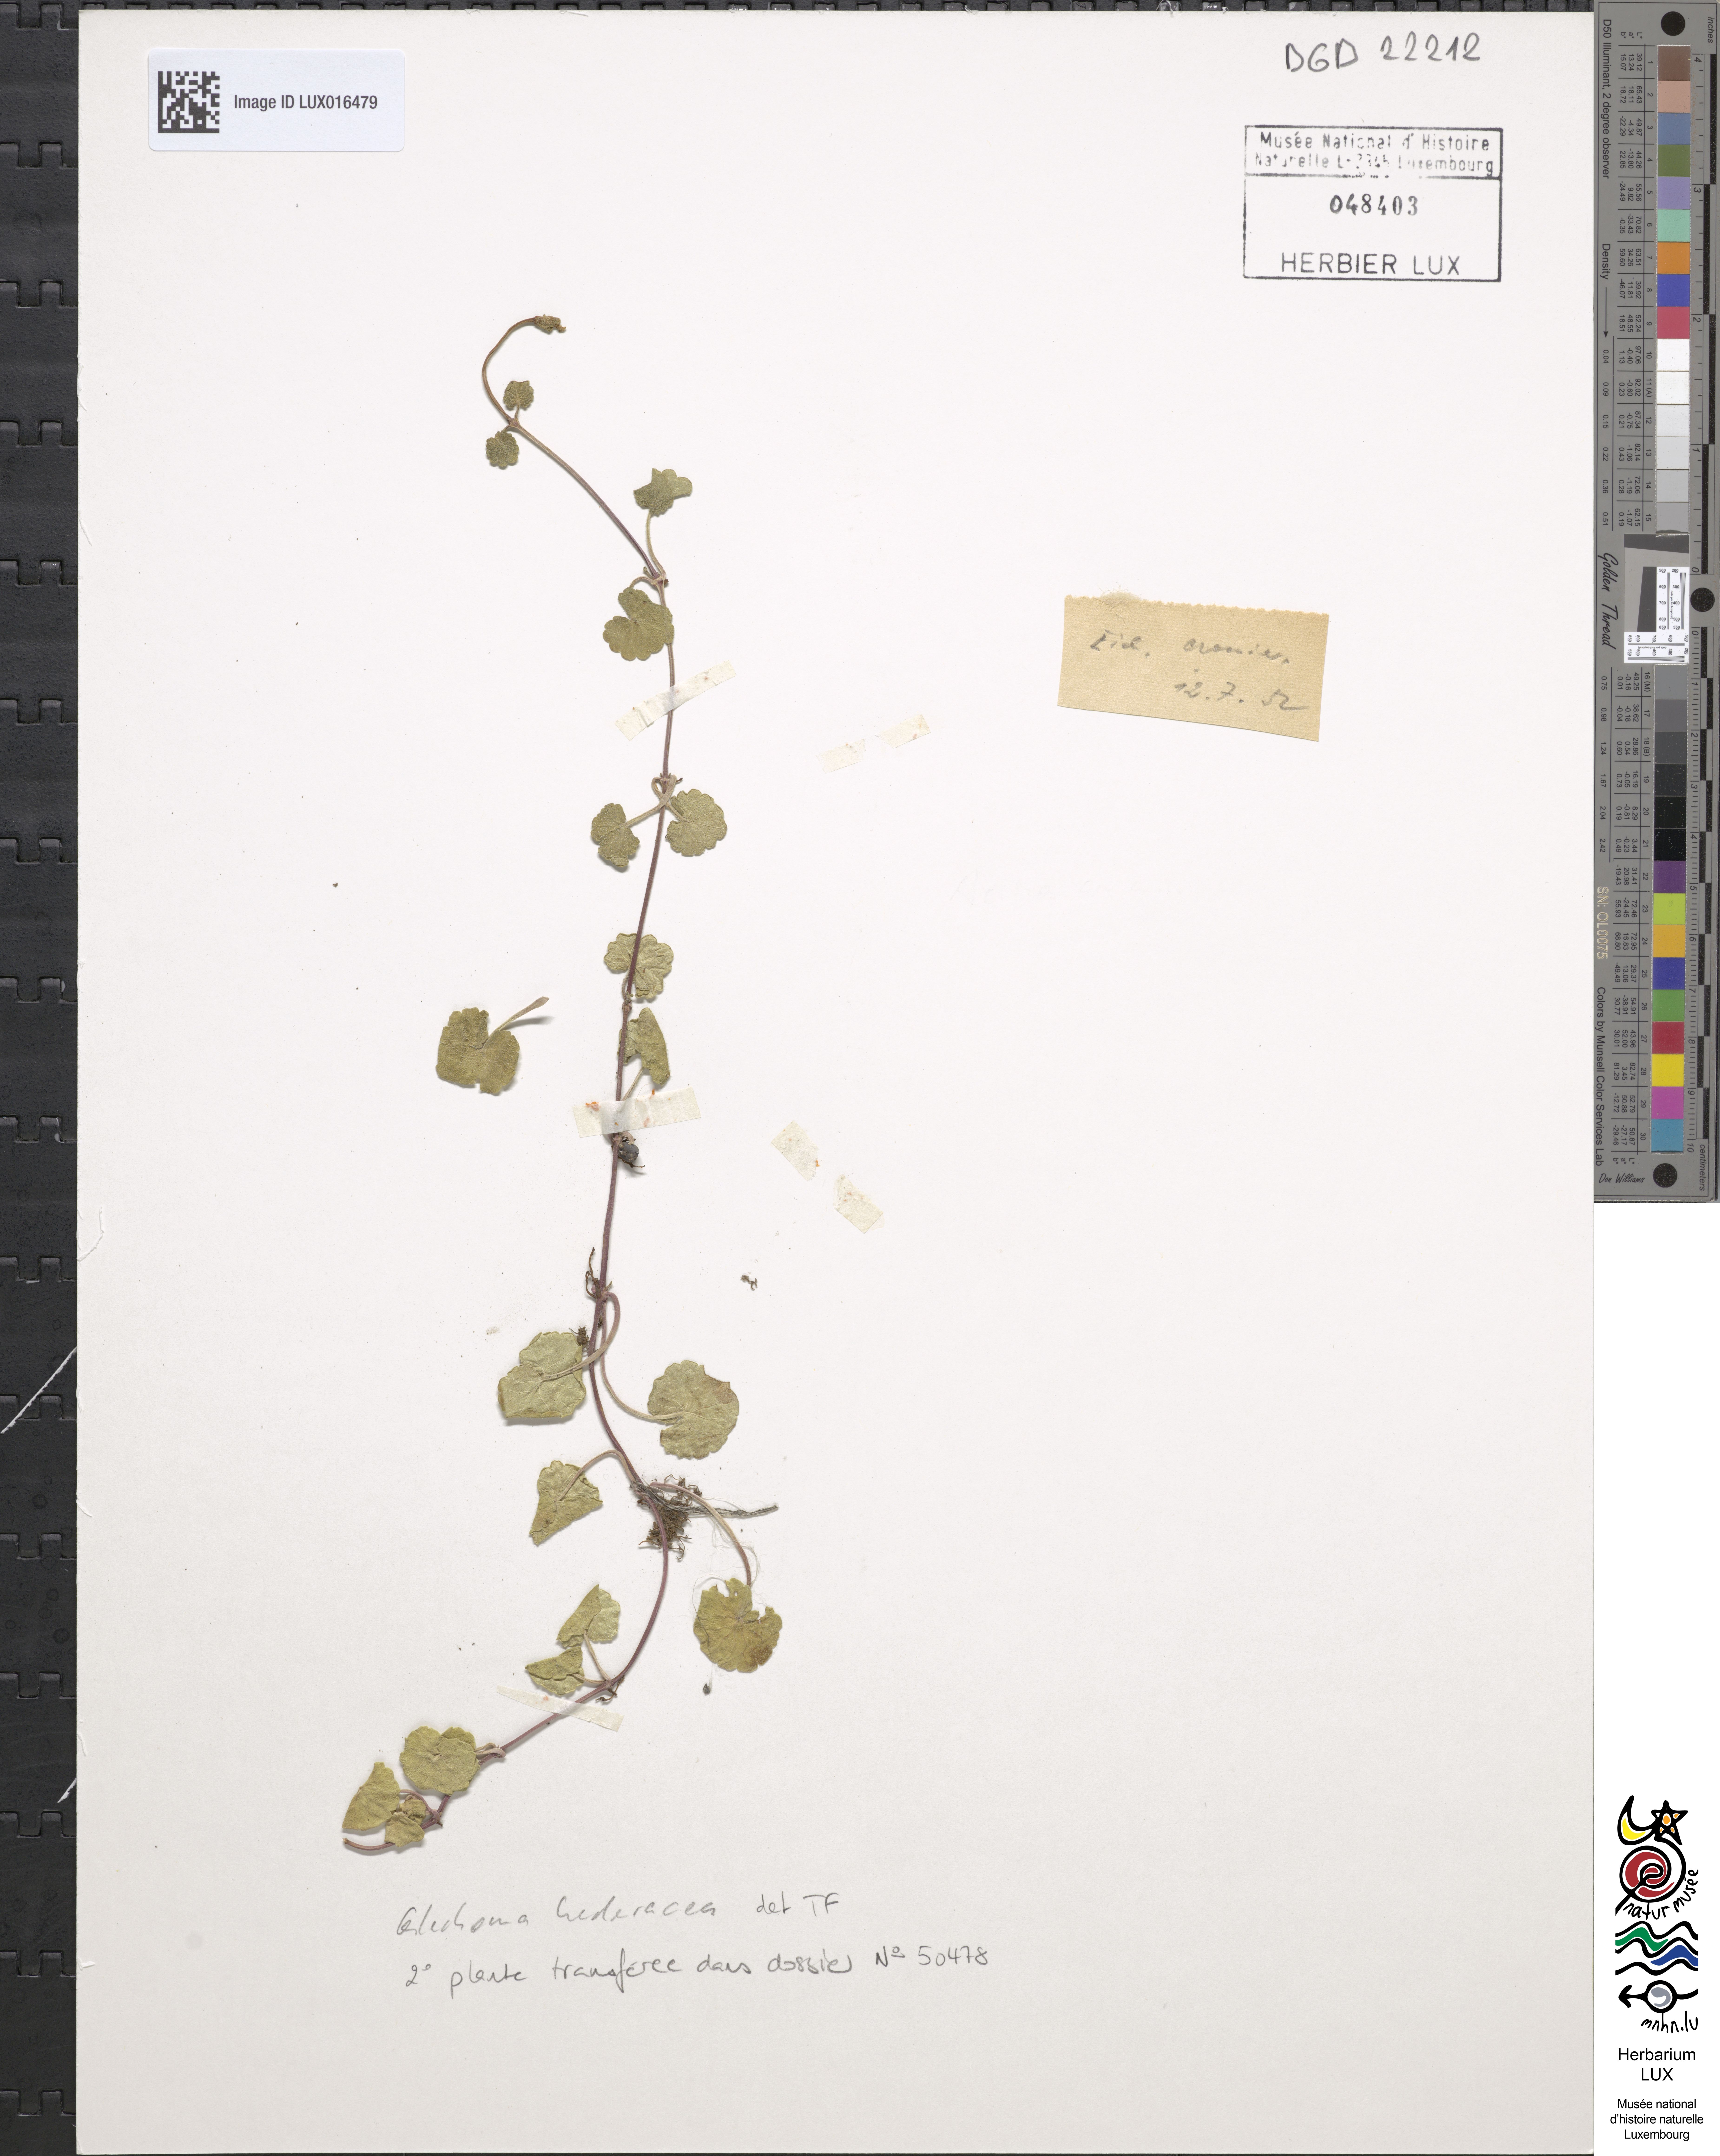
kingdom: Plantae
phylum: Tracheophyta
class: Magnoliopsida
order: Lamiales
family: Lamiaceae
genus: Glechoma
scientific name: Glechoma hederacea
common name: Ground ivy
